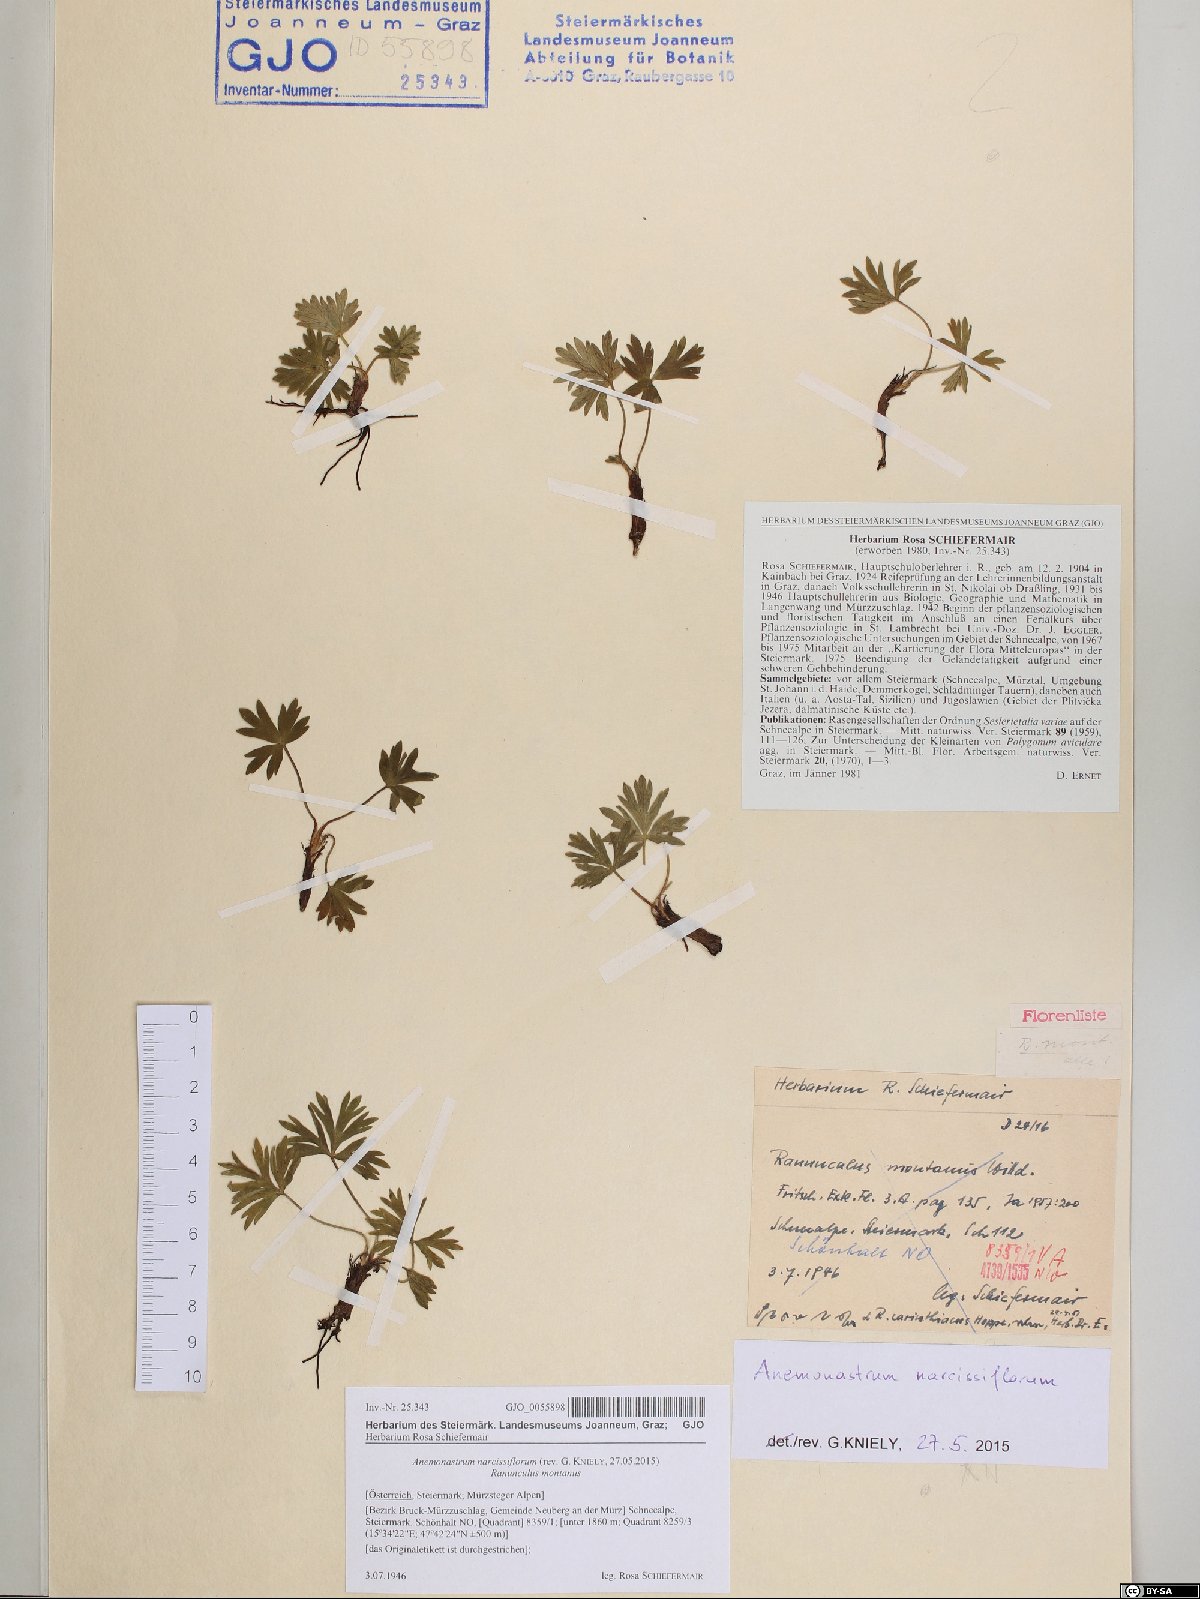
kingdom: Plantae
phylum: Tracheophyta
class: Magnoliopsida
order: Ranunculales
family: Ranunculaceae
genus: Anemonastrum
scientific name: Anemonastrum narcissiflorum
